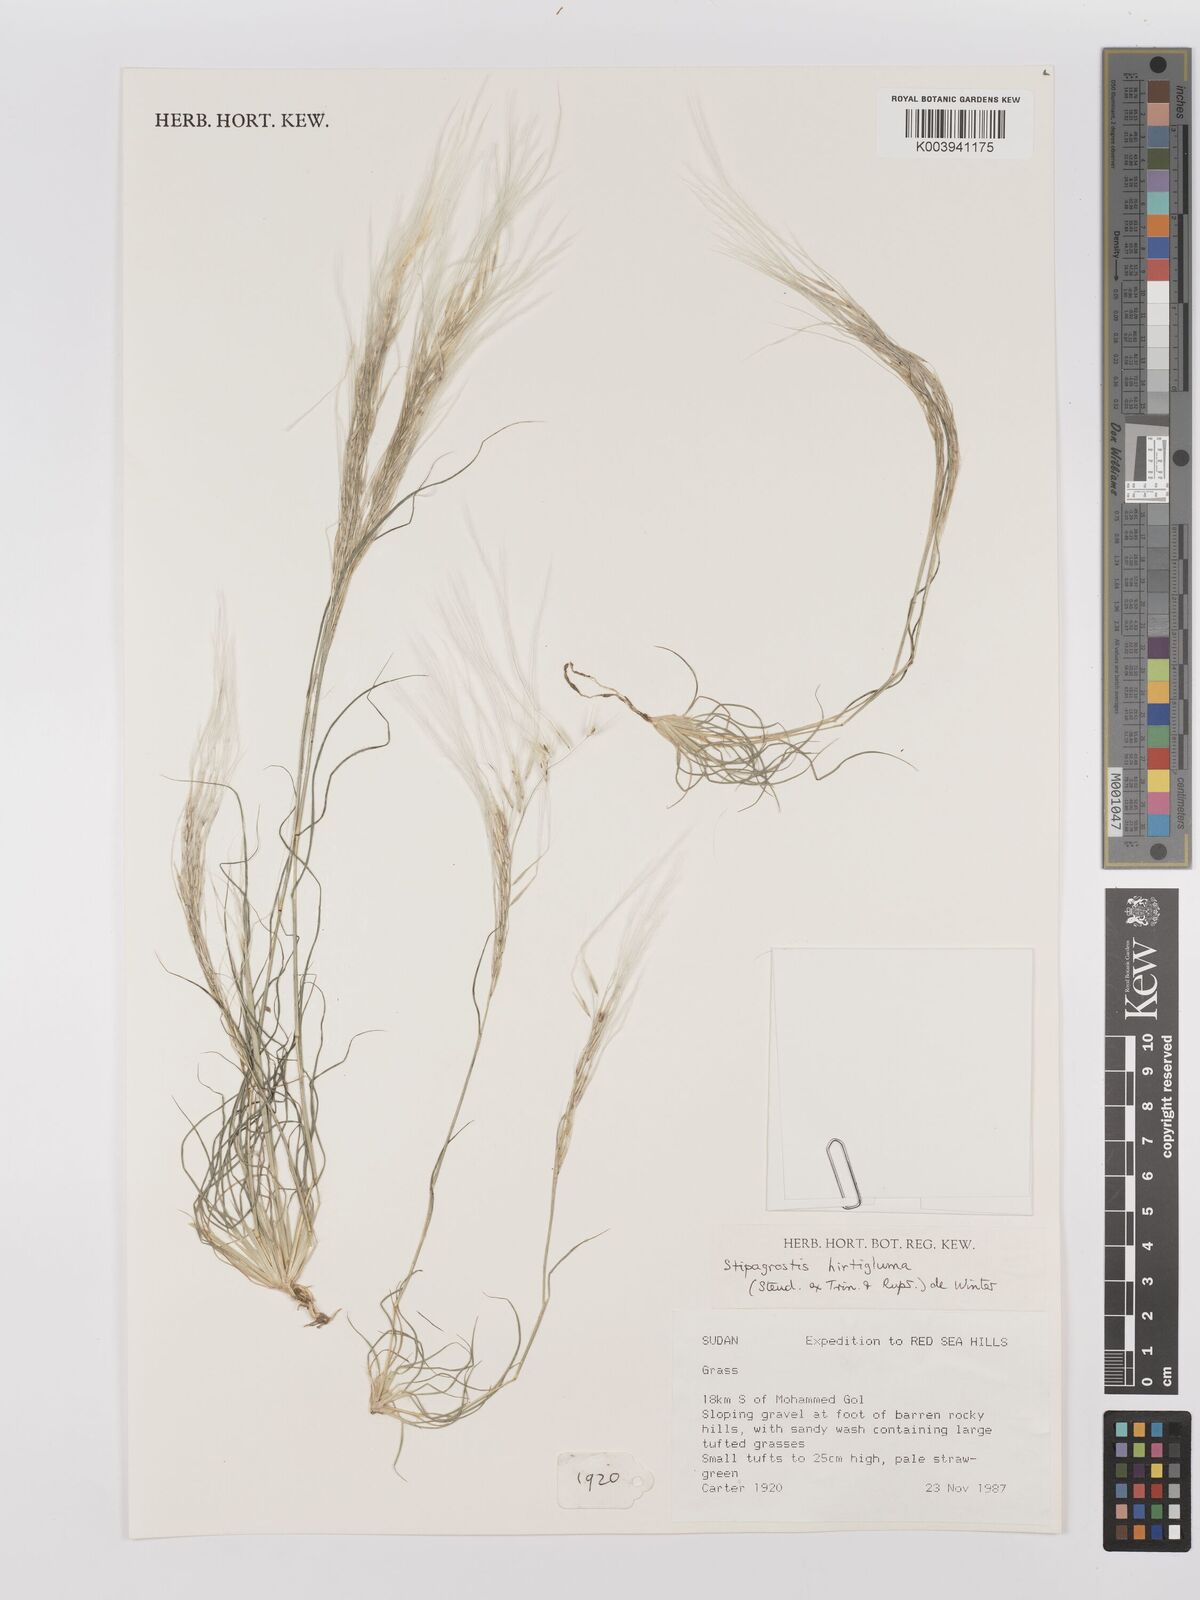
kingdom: Plantae
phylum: Tracheophyta
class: Liliopsida
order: Poales
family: Poaceae
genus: Stipagrostis
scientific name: Stipagrostis hirtigluma
